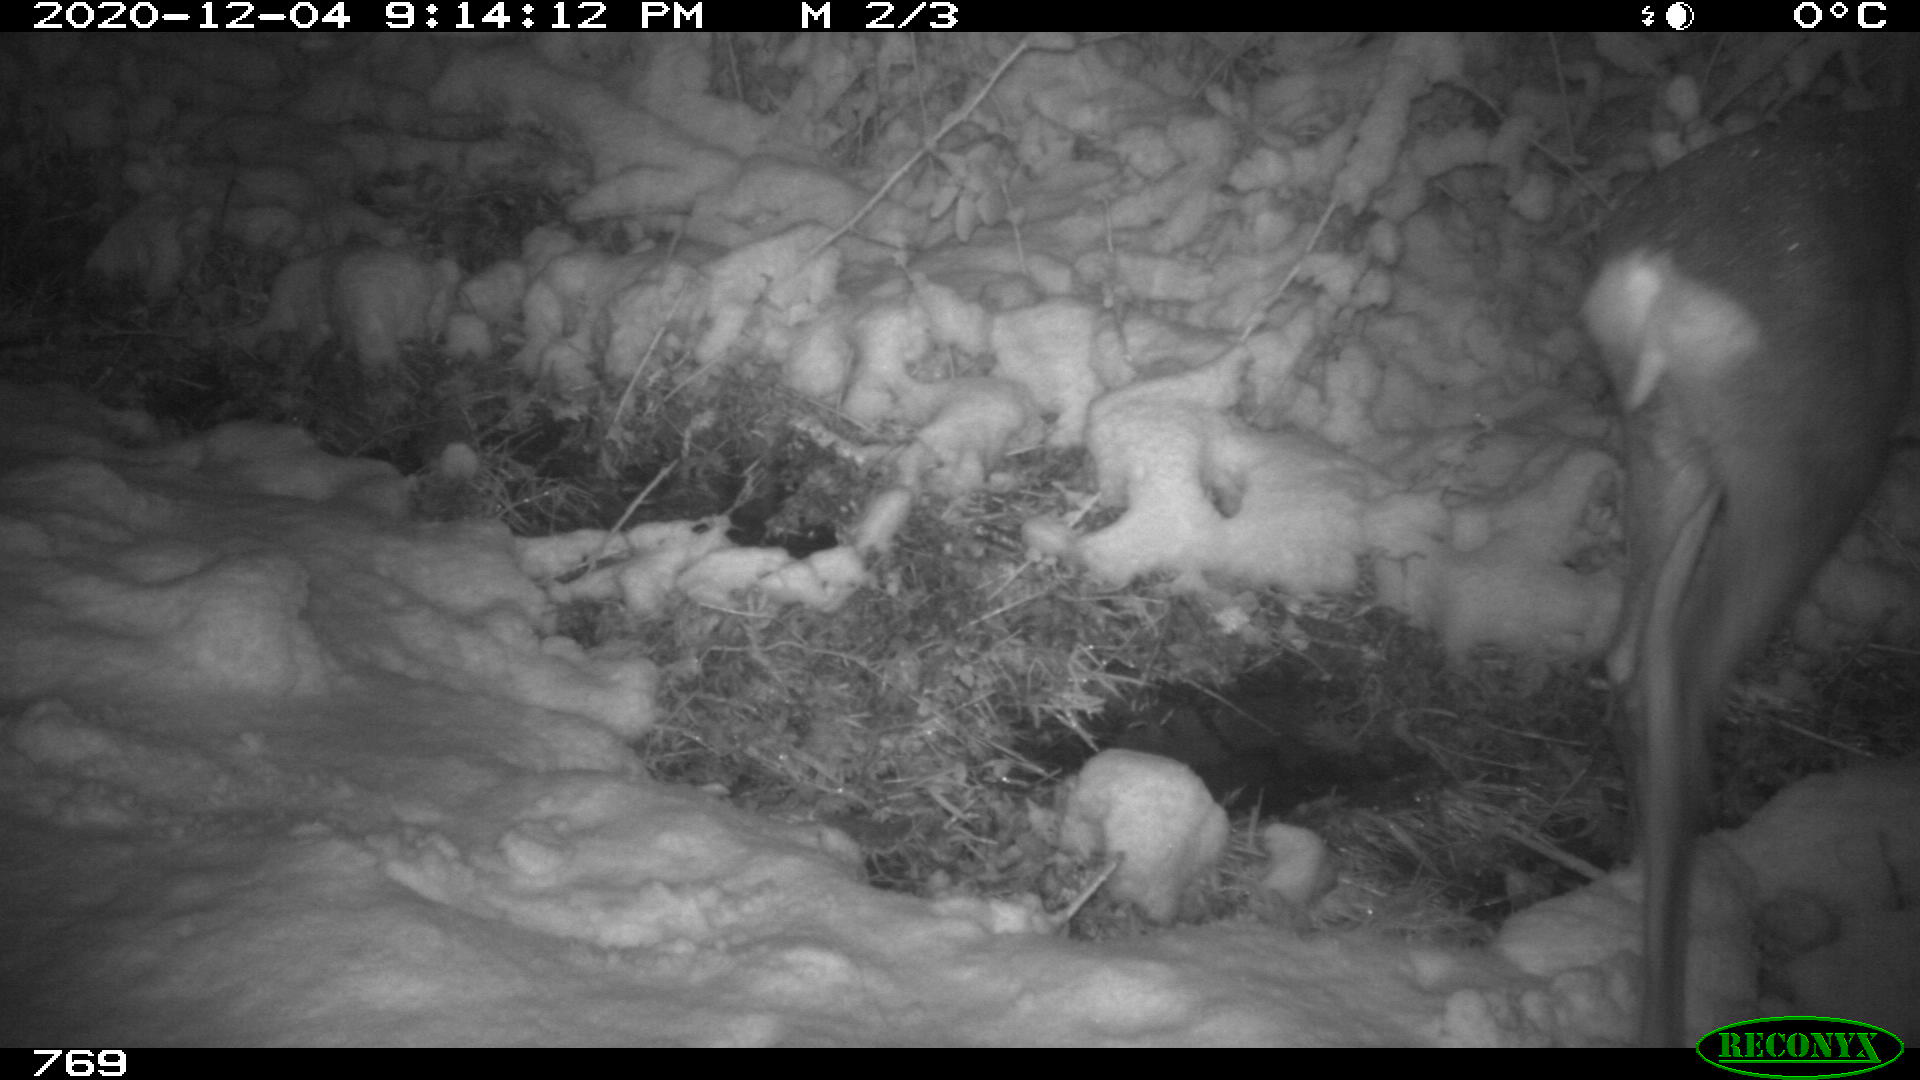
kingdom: Animalia
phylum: Chordata
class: Mammalia
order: Artiodactyla
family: Cervidae
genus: Capreolus
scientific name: Capreolus capreolus
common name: Western roe deer
